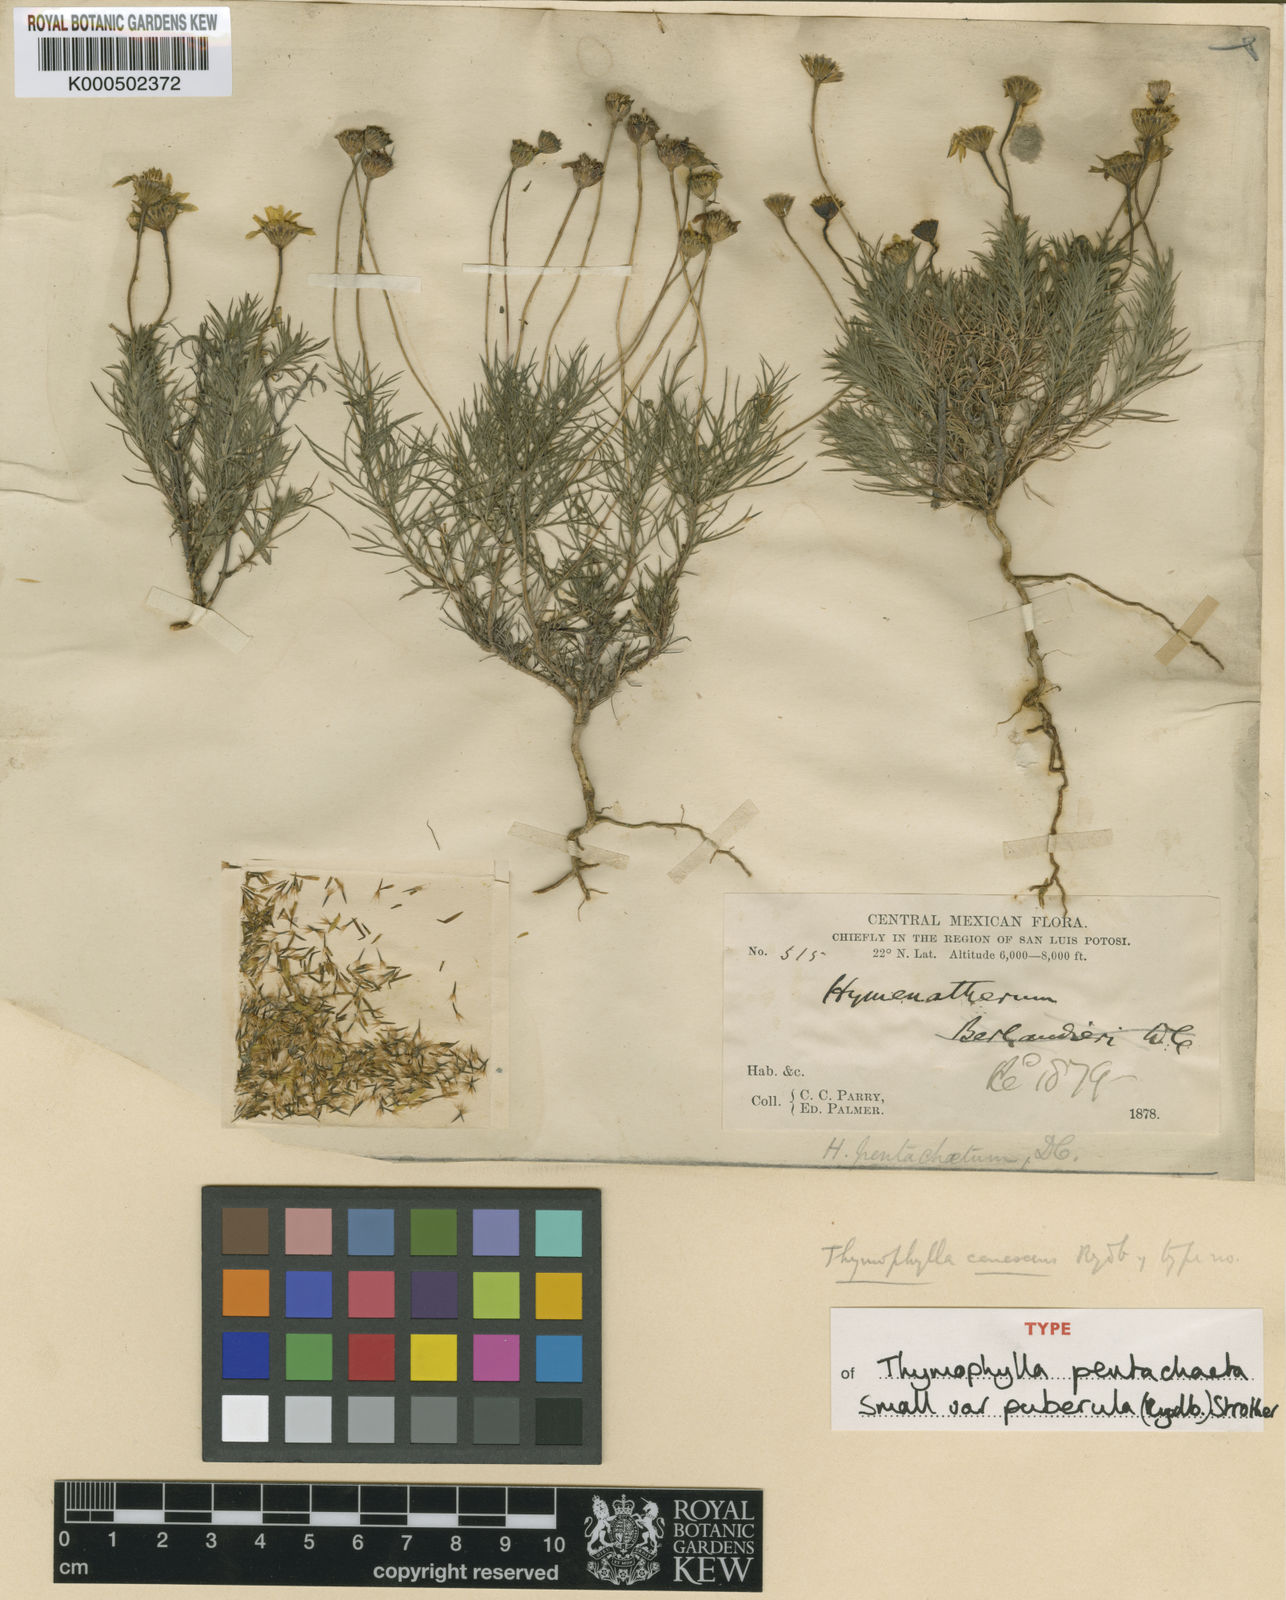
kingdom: Plantae
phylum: Tracheophyta
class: Magnoliopsida
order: Asterales
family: Asteraceae
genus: Thymophylla
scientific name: Thymophylla pentachaeta
